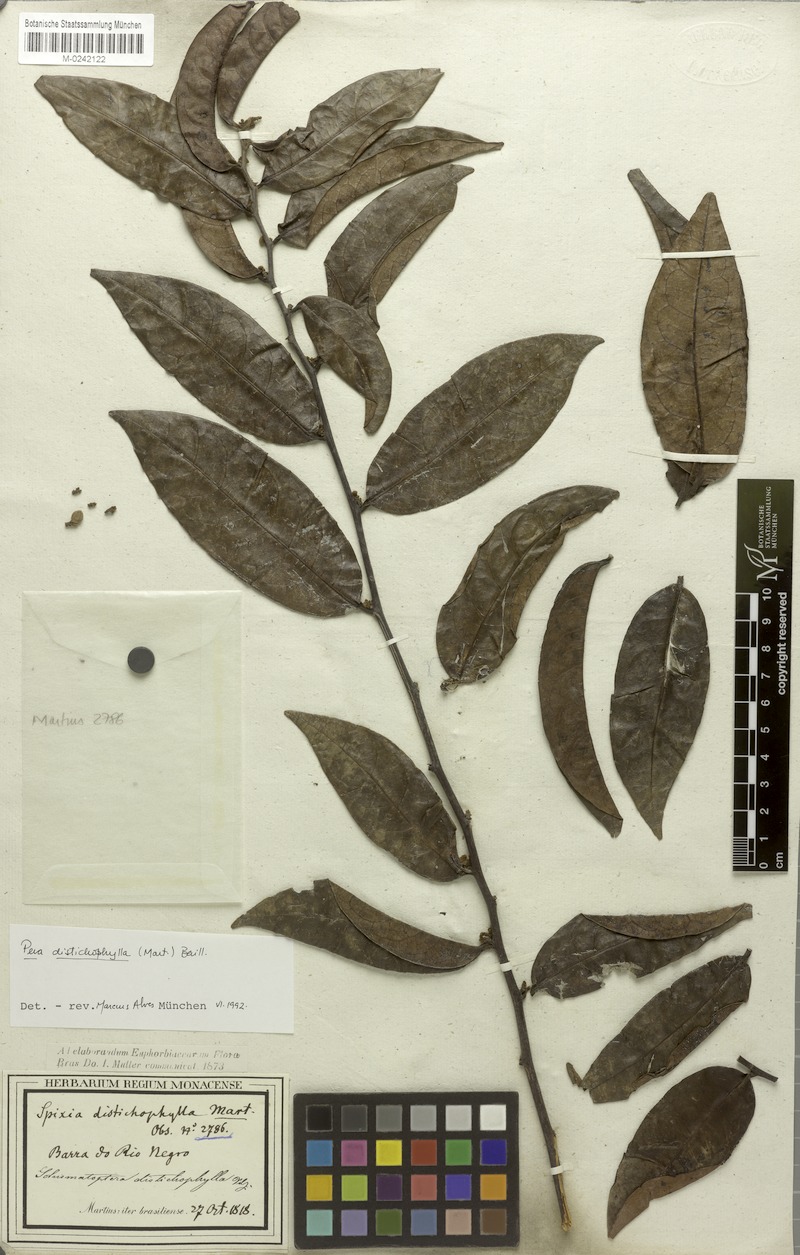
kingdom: Plantae
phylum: Tracheophyta
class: Magnoliopsida
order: Malpighiales
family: Peraceae
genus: Pera
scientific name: Pera distichophylla
